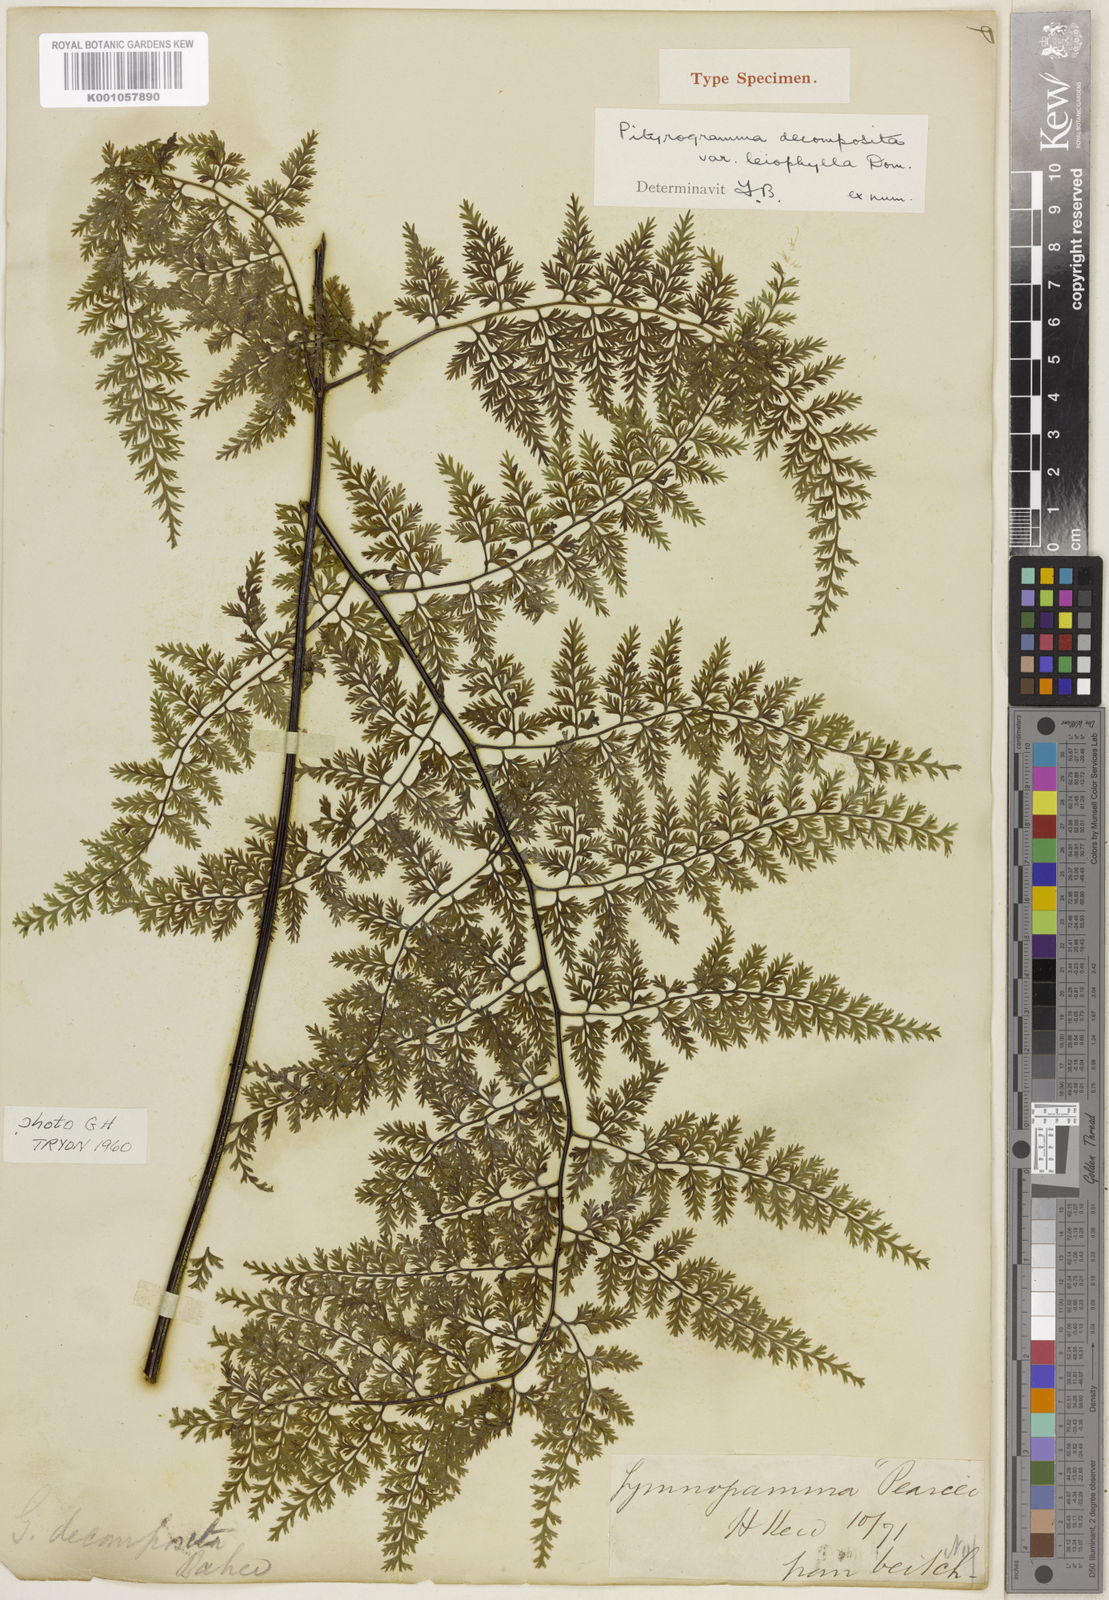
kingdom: Plantae
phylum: Tracheophyta
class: Polypodiopsida
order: Polypodiales
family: Pteridaceae
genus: Pityrogramma
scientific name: Pityrogramma chrysoconia
